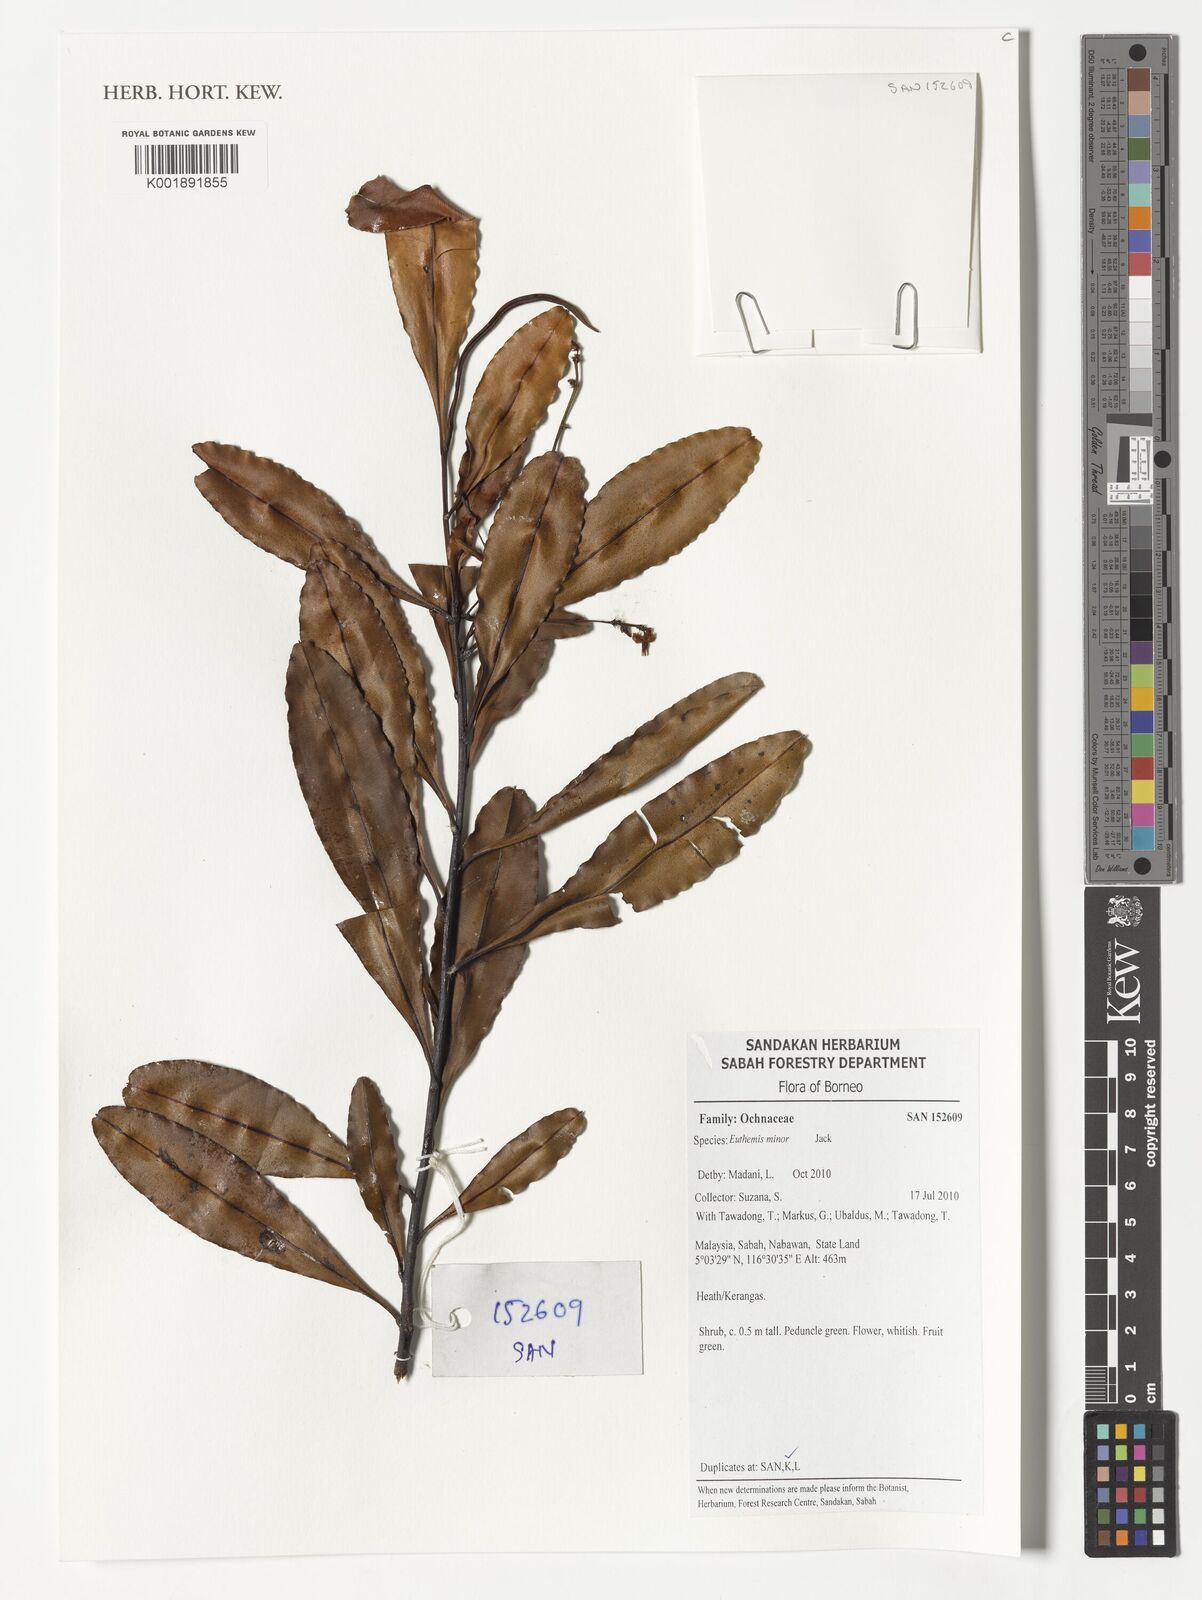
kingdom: Plantae
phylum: Tracheophyta
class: Magnoliopsida
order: Malpighiales
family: Ochnaceae
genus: Euthemis
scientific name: Euthemis minor
